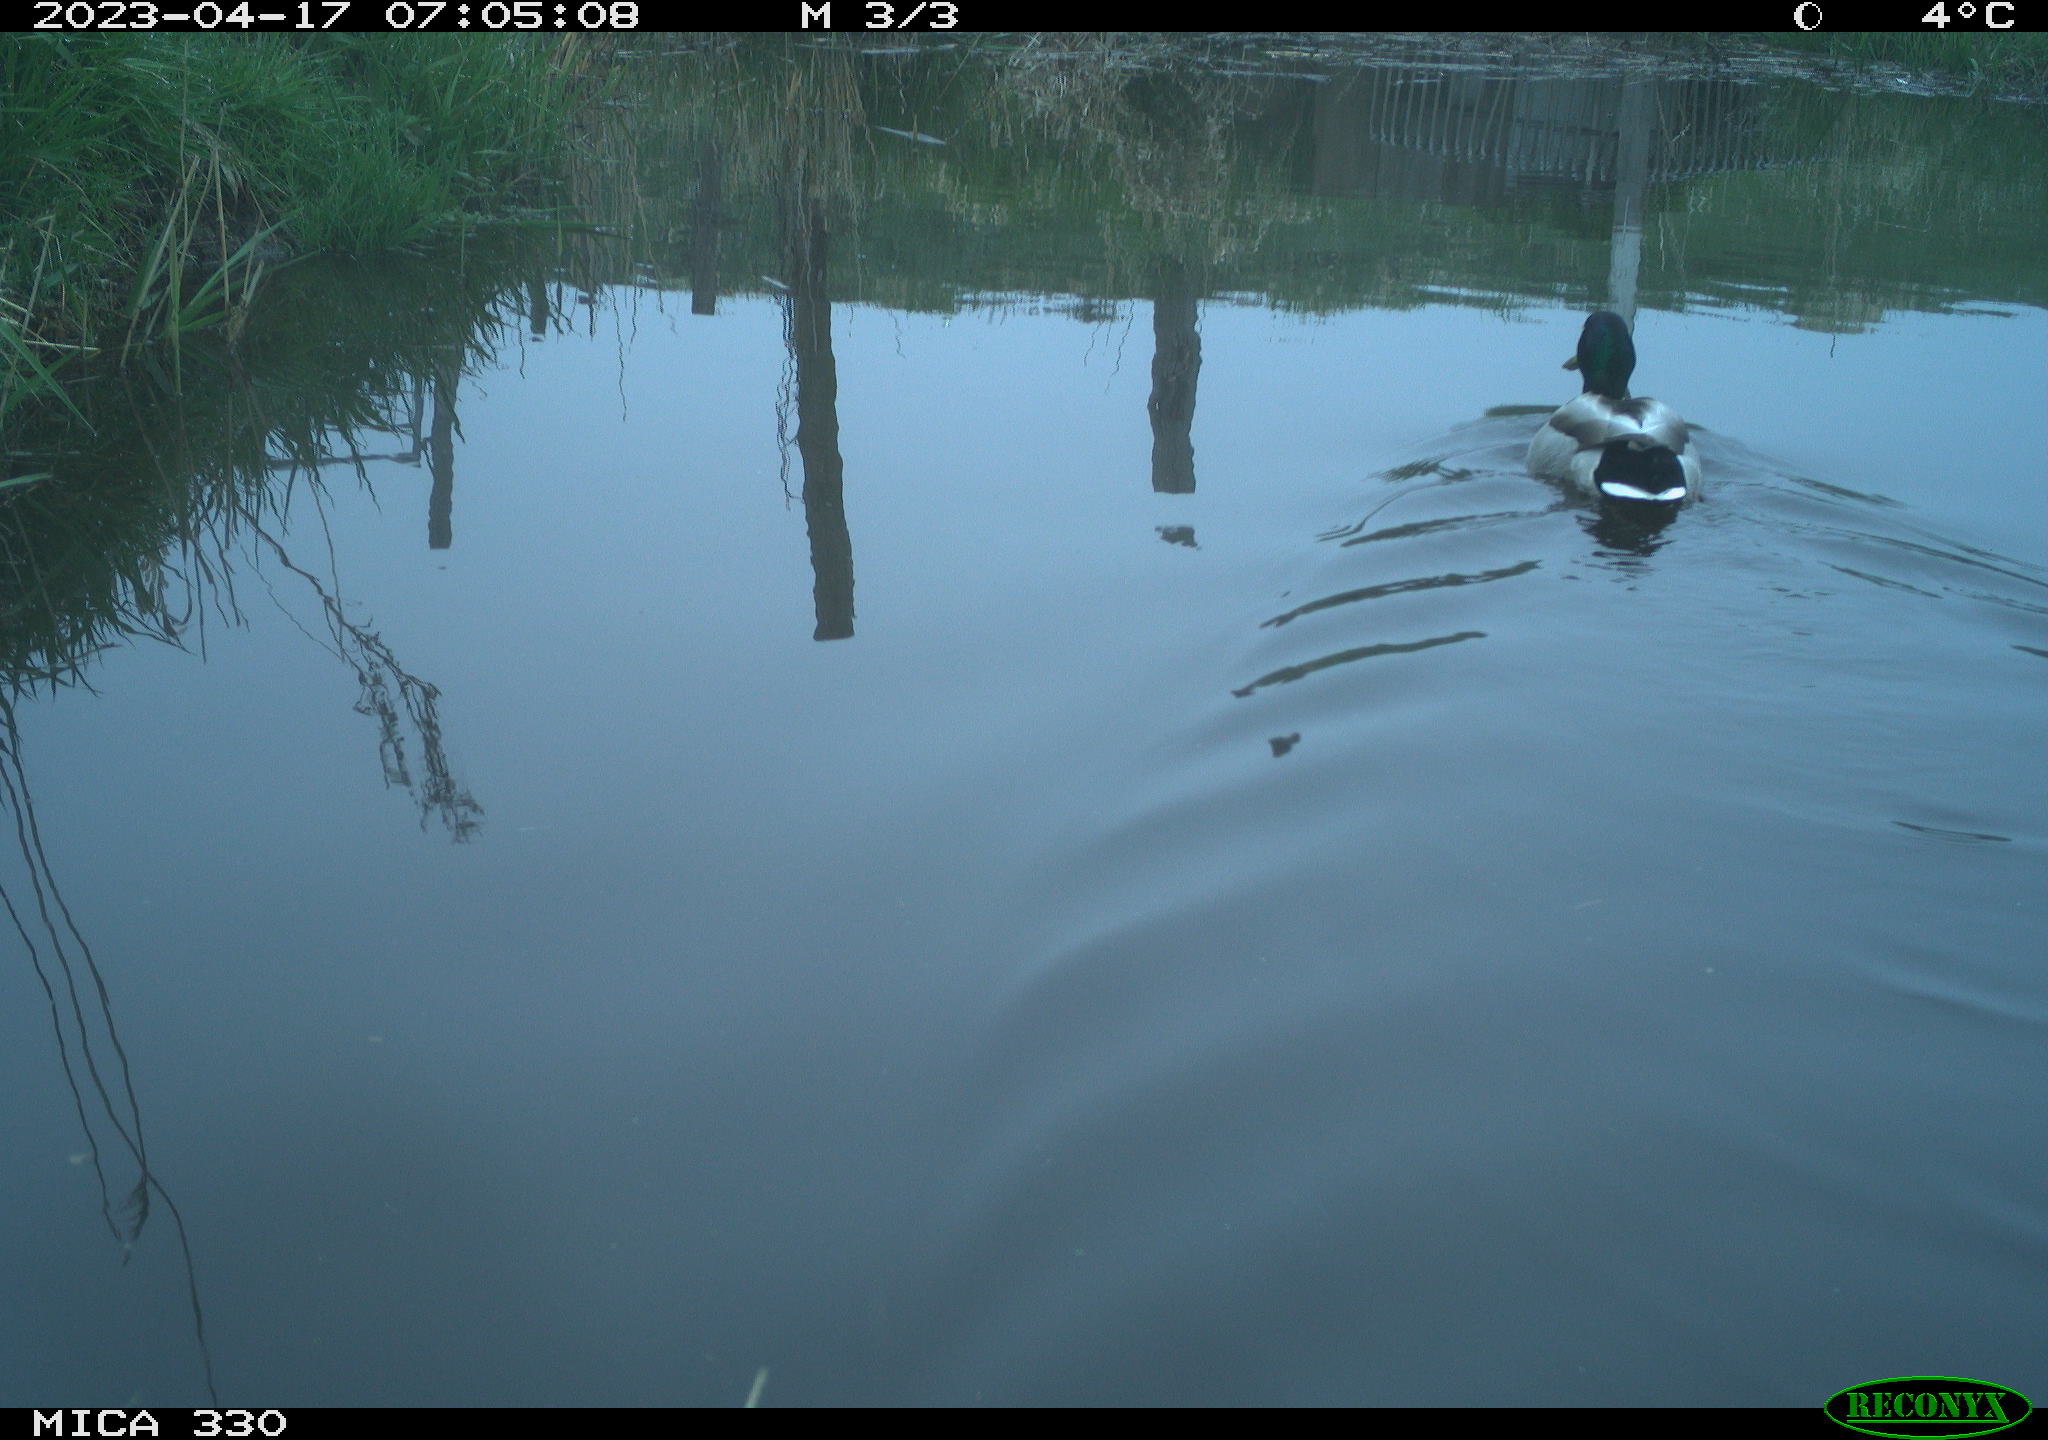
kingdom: Animalia
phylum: Chordata
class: Aves
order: Anseriformes
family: Anatidae
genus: Anas
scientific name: Anas
